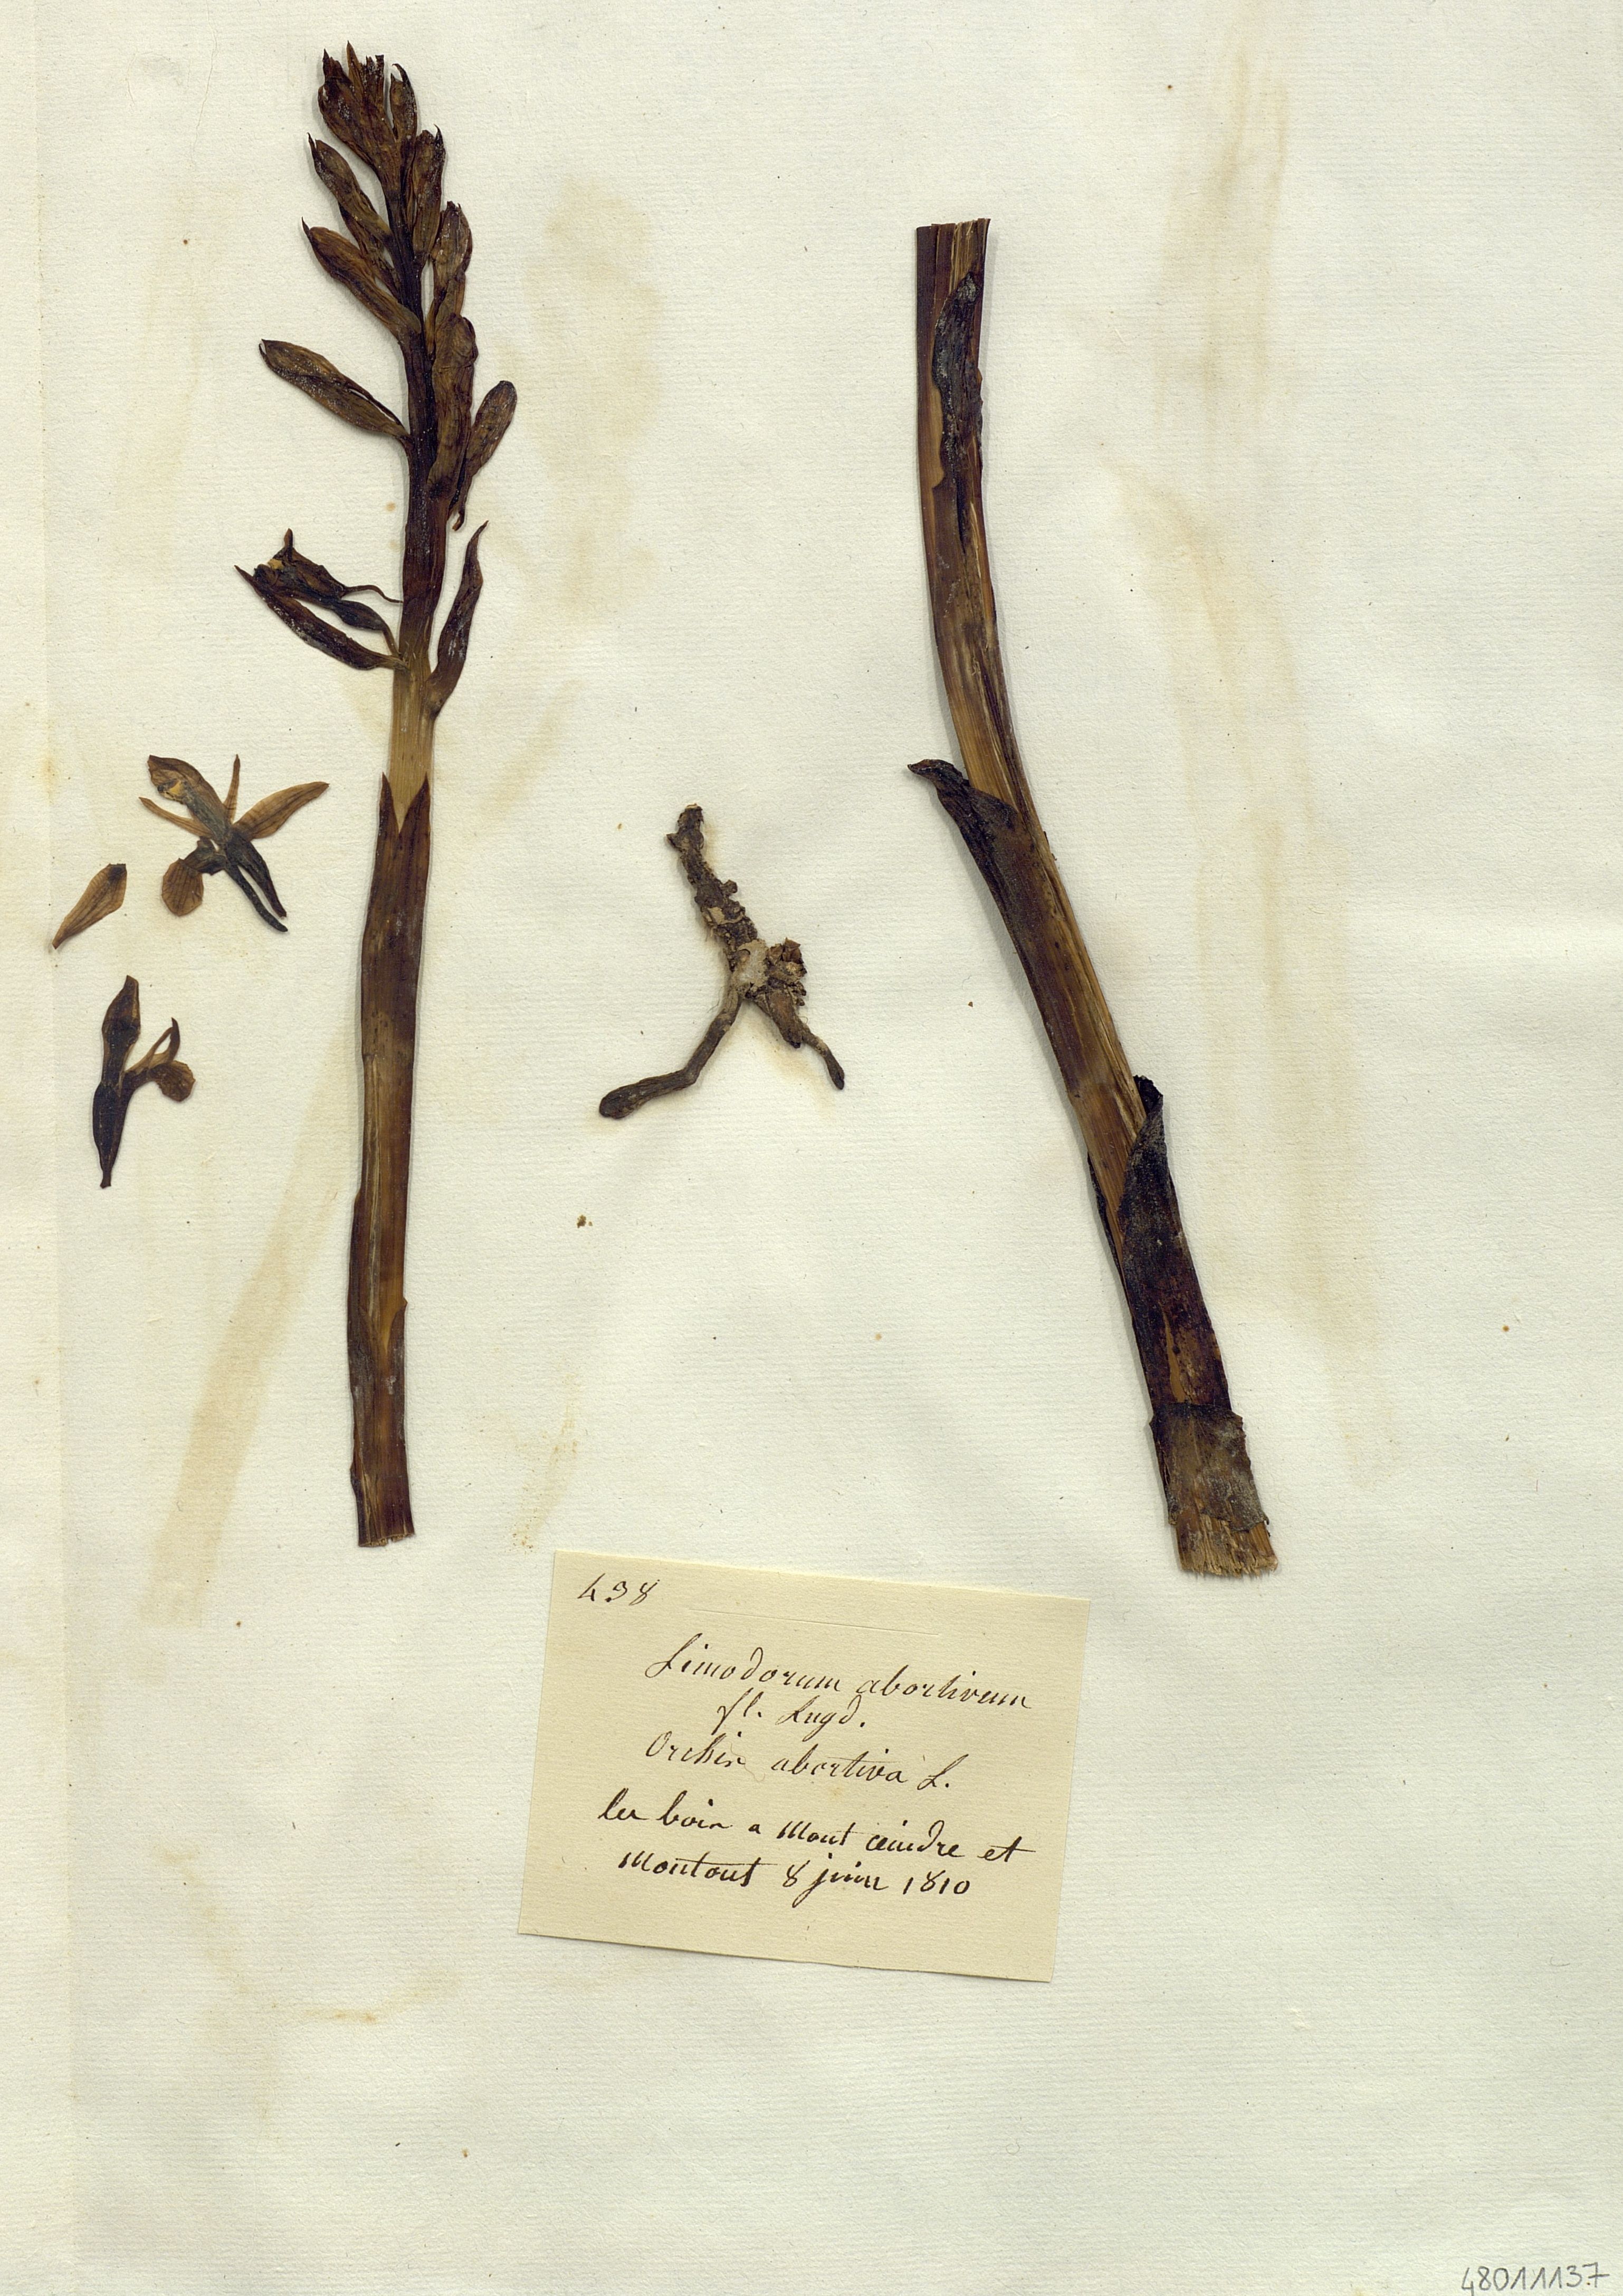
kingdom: Plantae
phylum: Tracheophyta
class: Liliopsida
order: Asparagales
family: Orchidaceae
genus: Limodorum
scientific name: Limodorum abortivum
